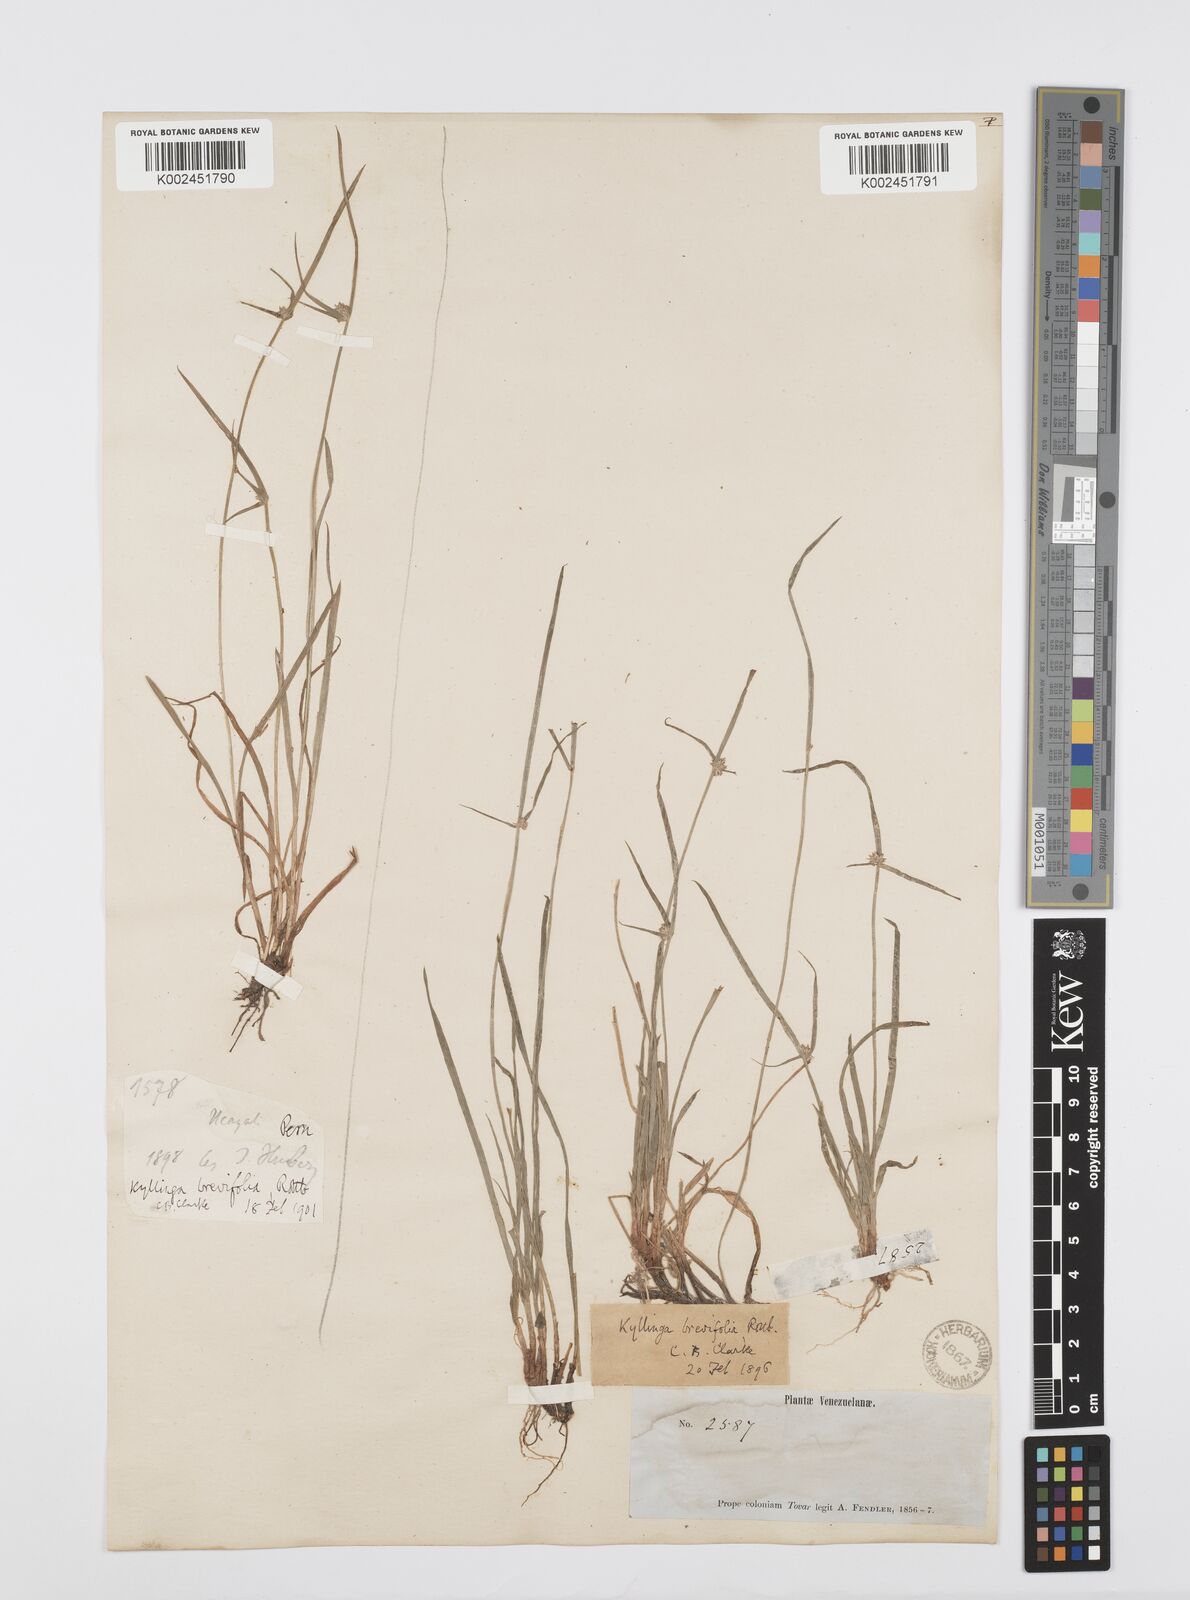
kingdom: Plantae
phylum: Tracheophyta
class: Liliopsida
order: Poales
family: Cyperaceae
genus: Cyperus
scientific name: Cyperus brevifolius
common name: Globe kyllinga
